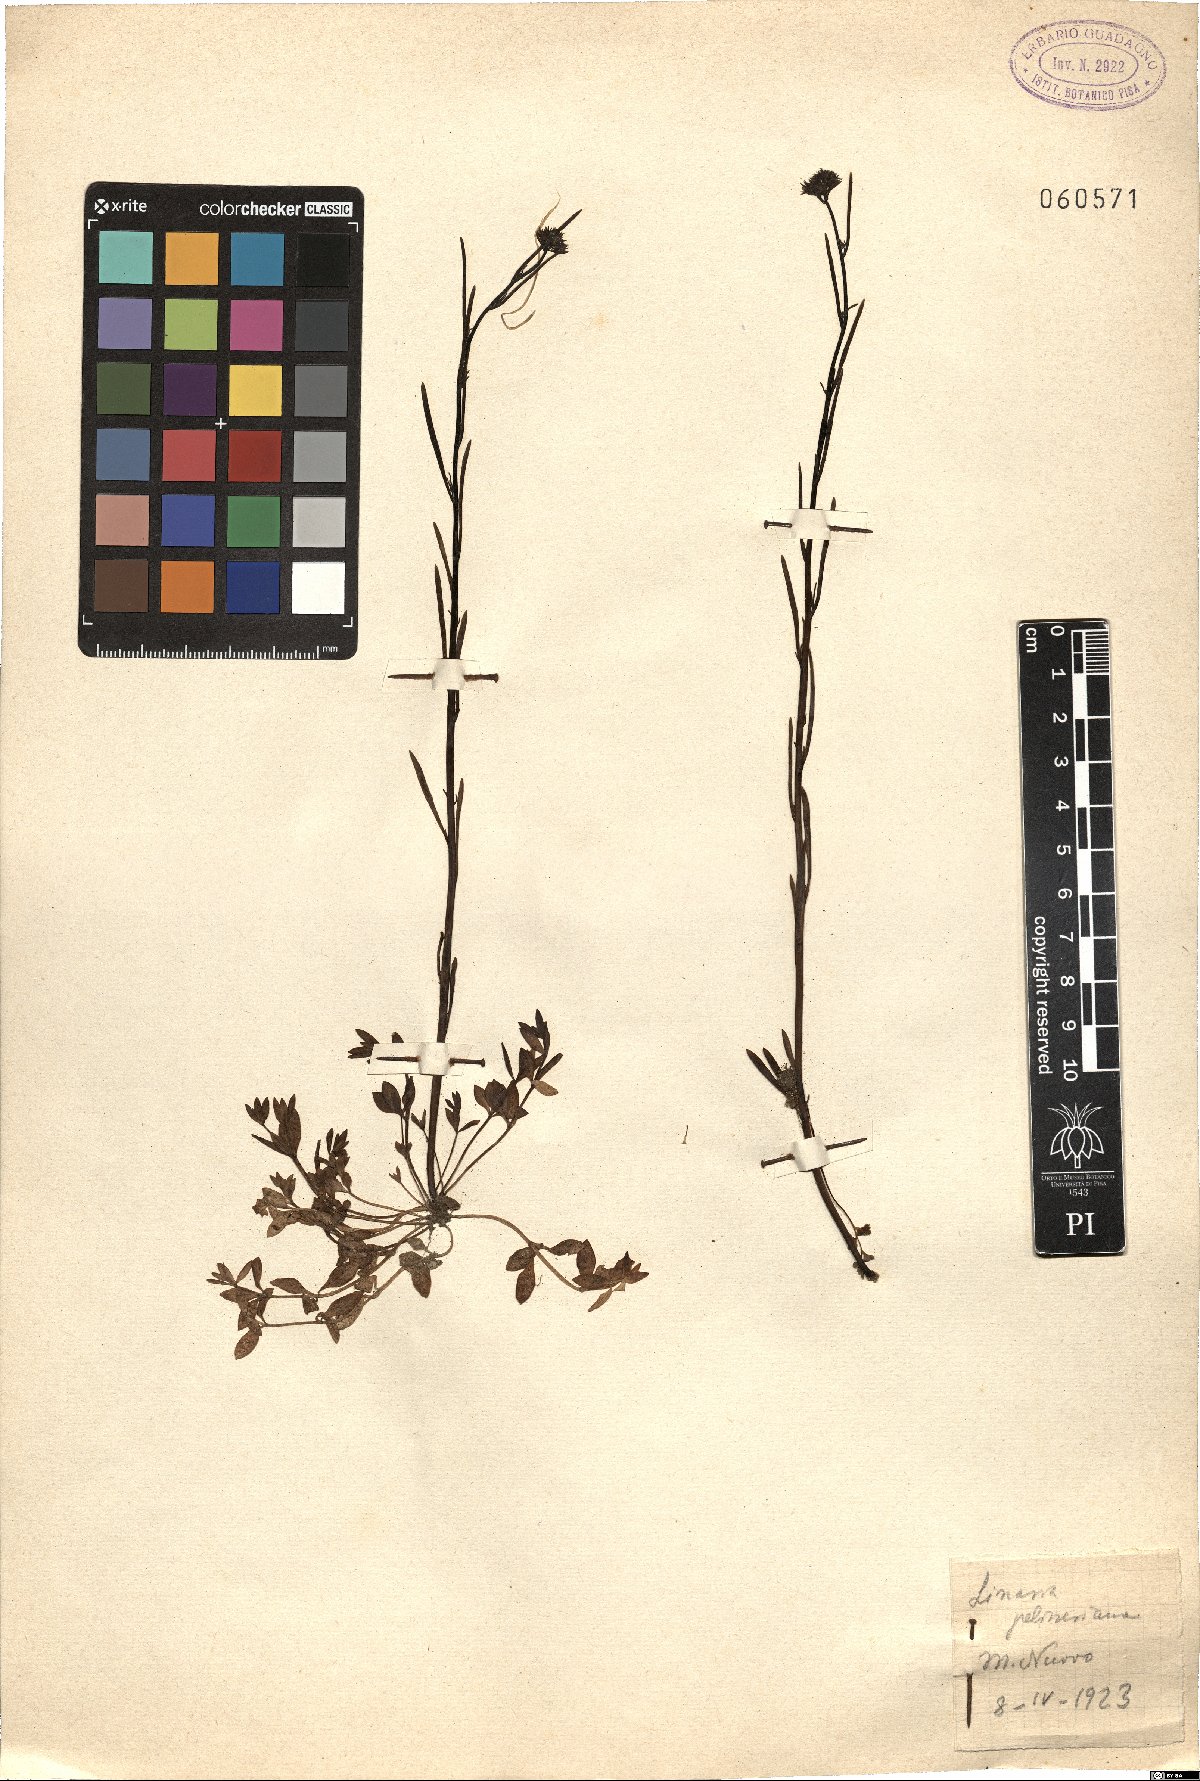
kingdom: Plantae
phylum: Tracheophyta
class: Magnoliopsida
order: Lamiales
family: Plantaginaceae
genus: Linaria
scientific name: Linaria pelisseriana
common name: Jersey toadflax
